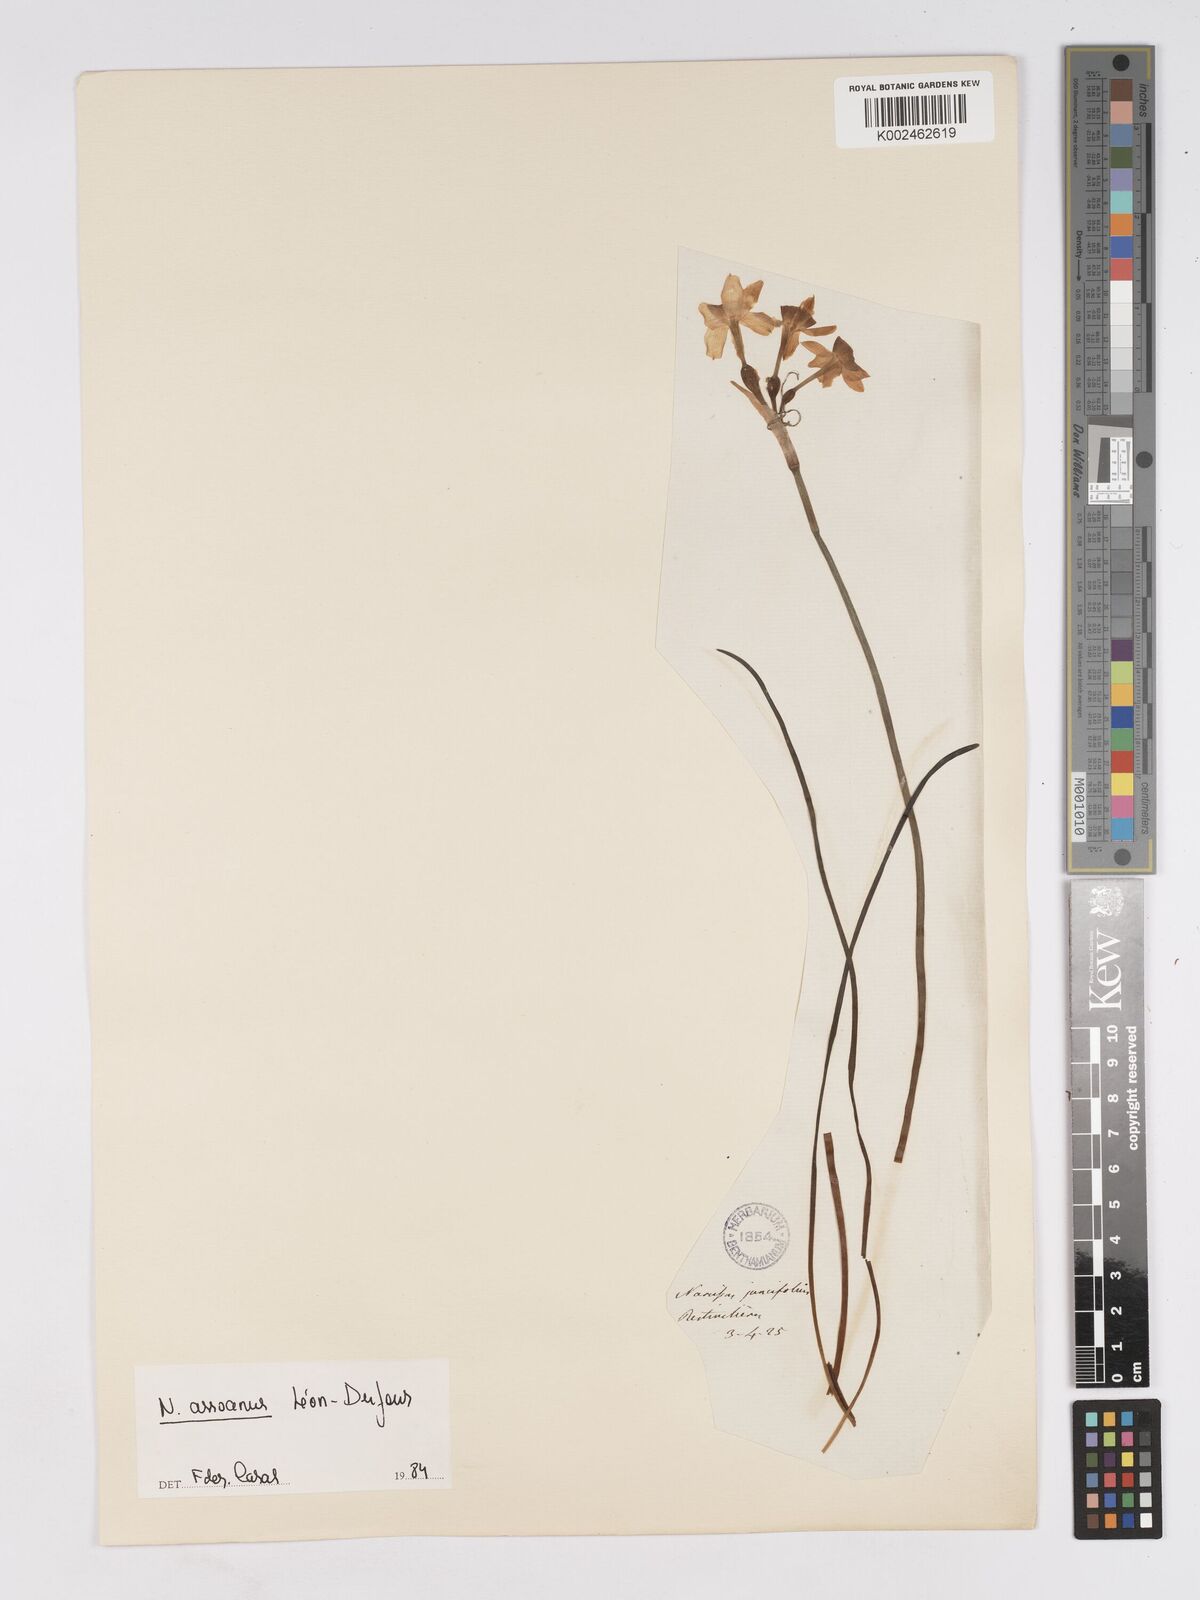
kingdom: Plantae
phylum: Tracheophyta
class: Liliopsida
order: Asparagales
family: Amaryllidaceae
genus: Narcissus
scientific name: Narcissus assoanus
